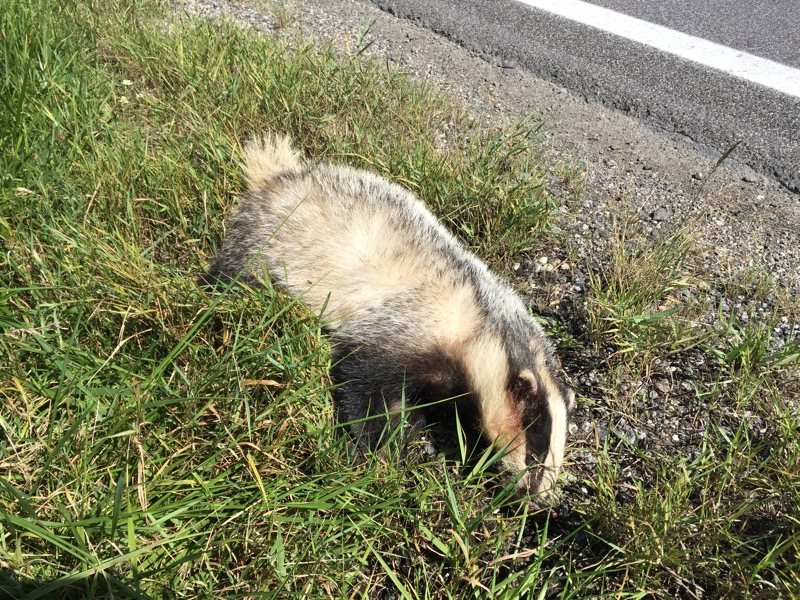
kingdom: Animalia
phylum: Chordata
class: Mammalia
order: Carnivora
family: Mustelidae
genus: Meles
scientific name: Meles meles
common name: Eurasian badger
